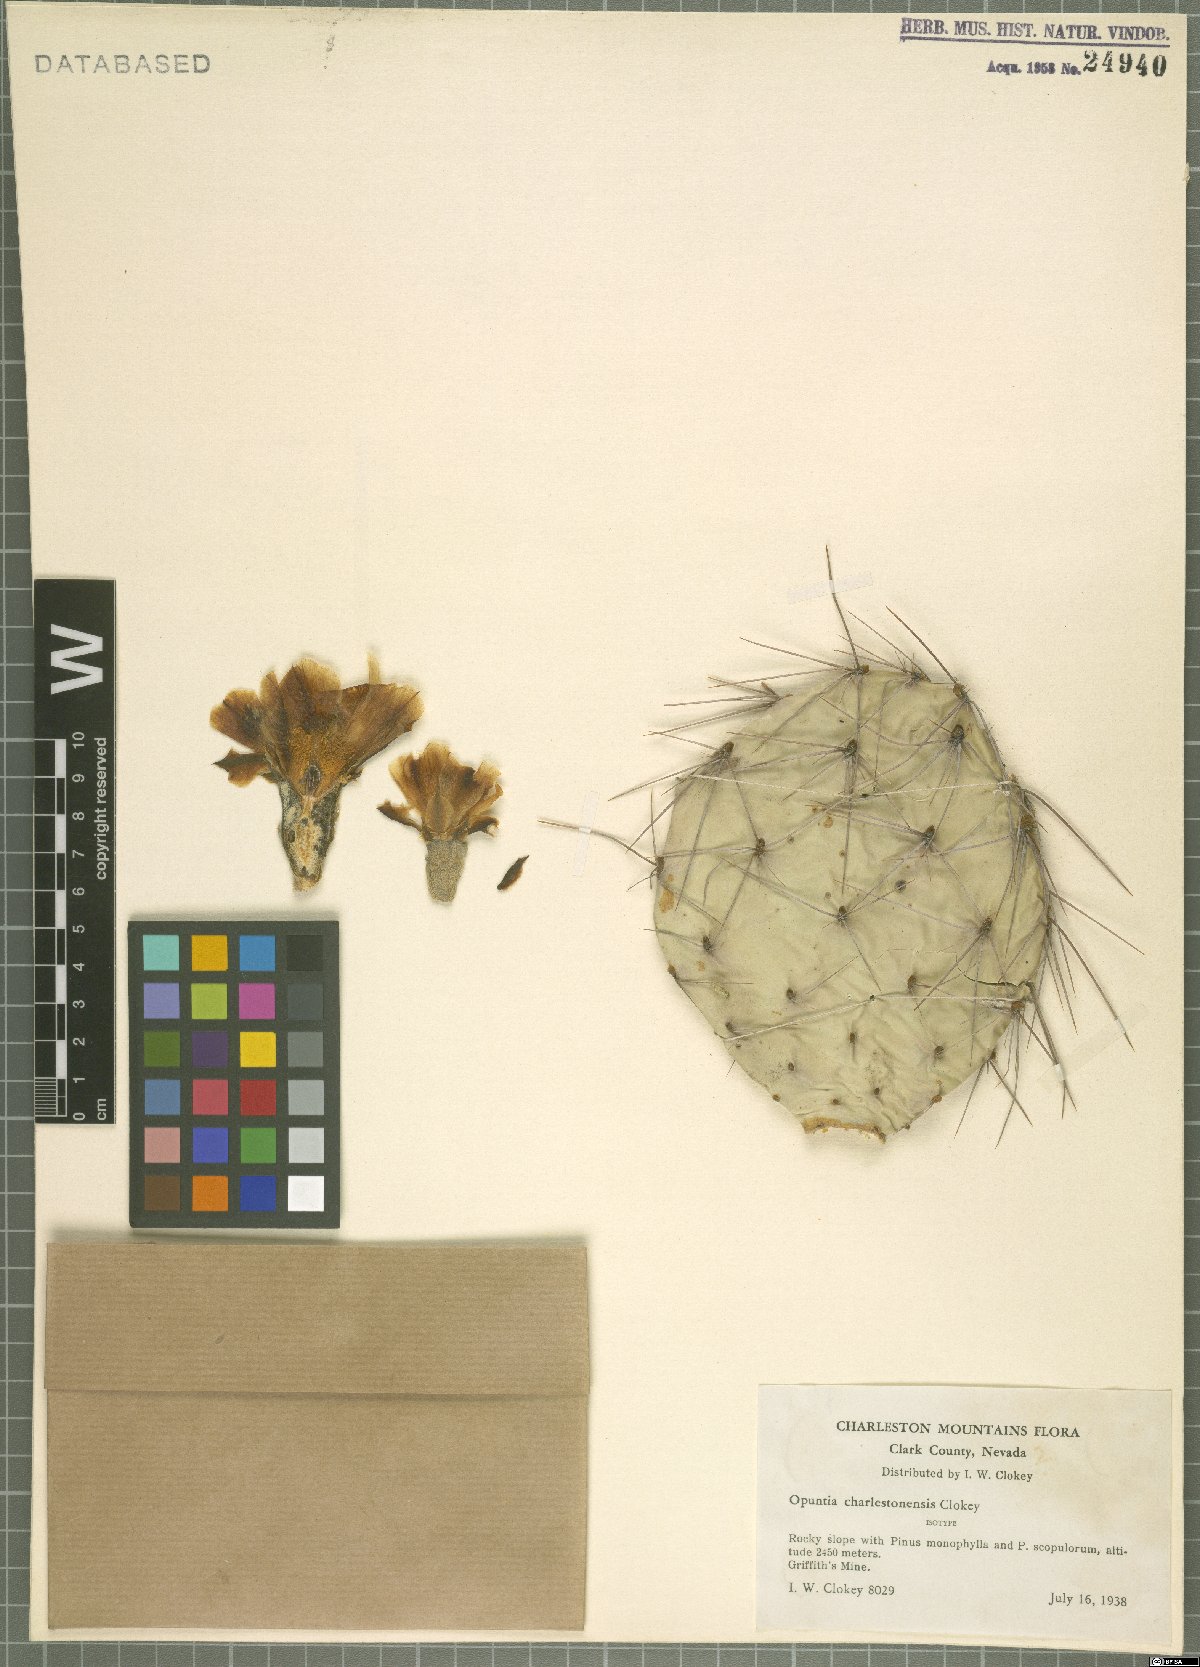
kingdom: Plantae
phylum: Tracheophyta
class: Magnoliopsida
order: Caryophyllales
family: Cactaceae
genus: Opuntia
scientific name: Opuntia charlestonensis
